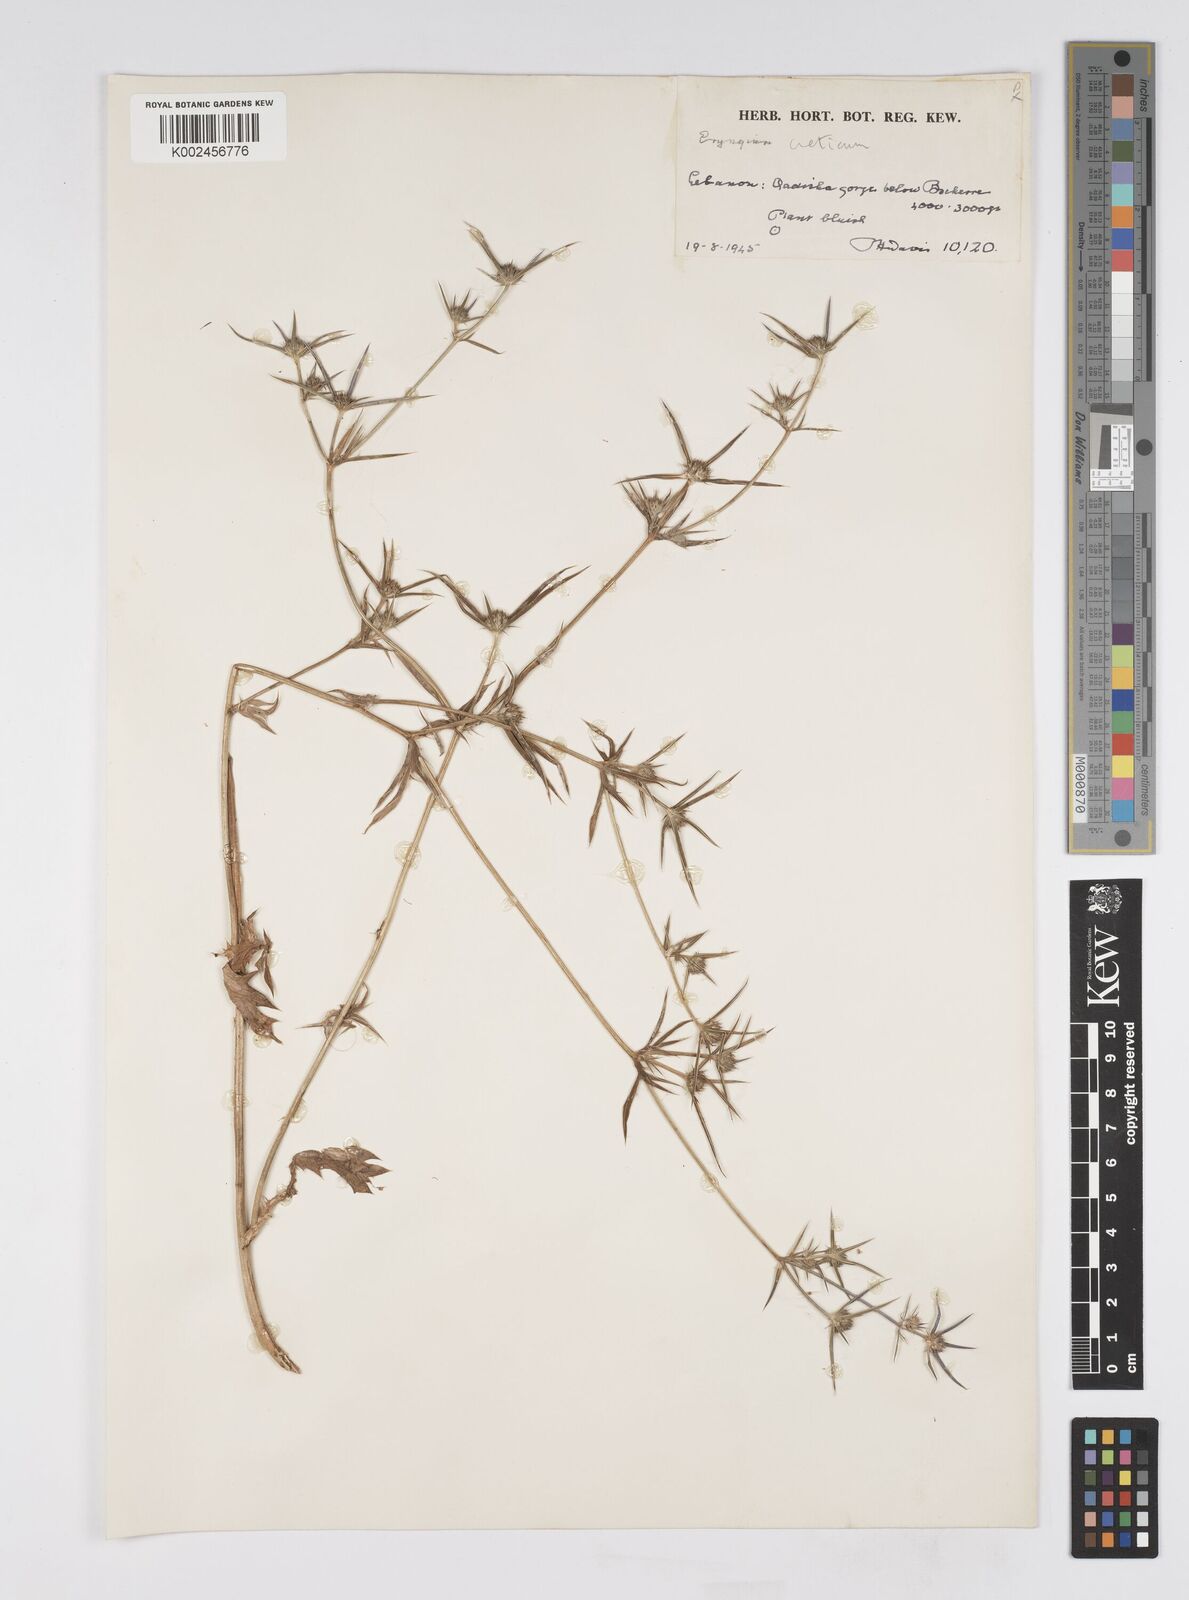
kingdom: Plantae
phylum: Tracheophyta
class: Magnoliopsida
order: Apiales
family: Apiaceae
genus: Eryngium
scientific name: Eryngium creticum
